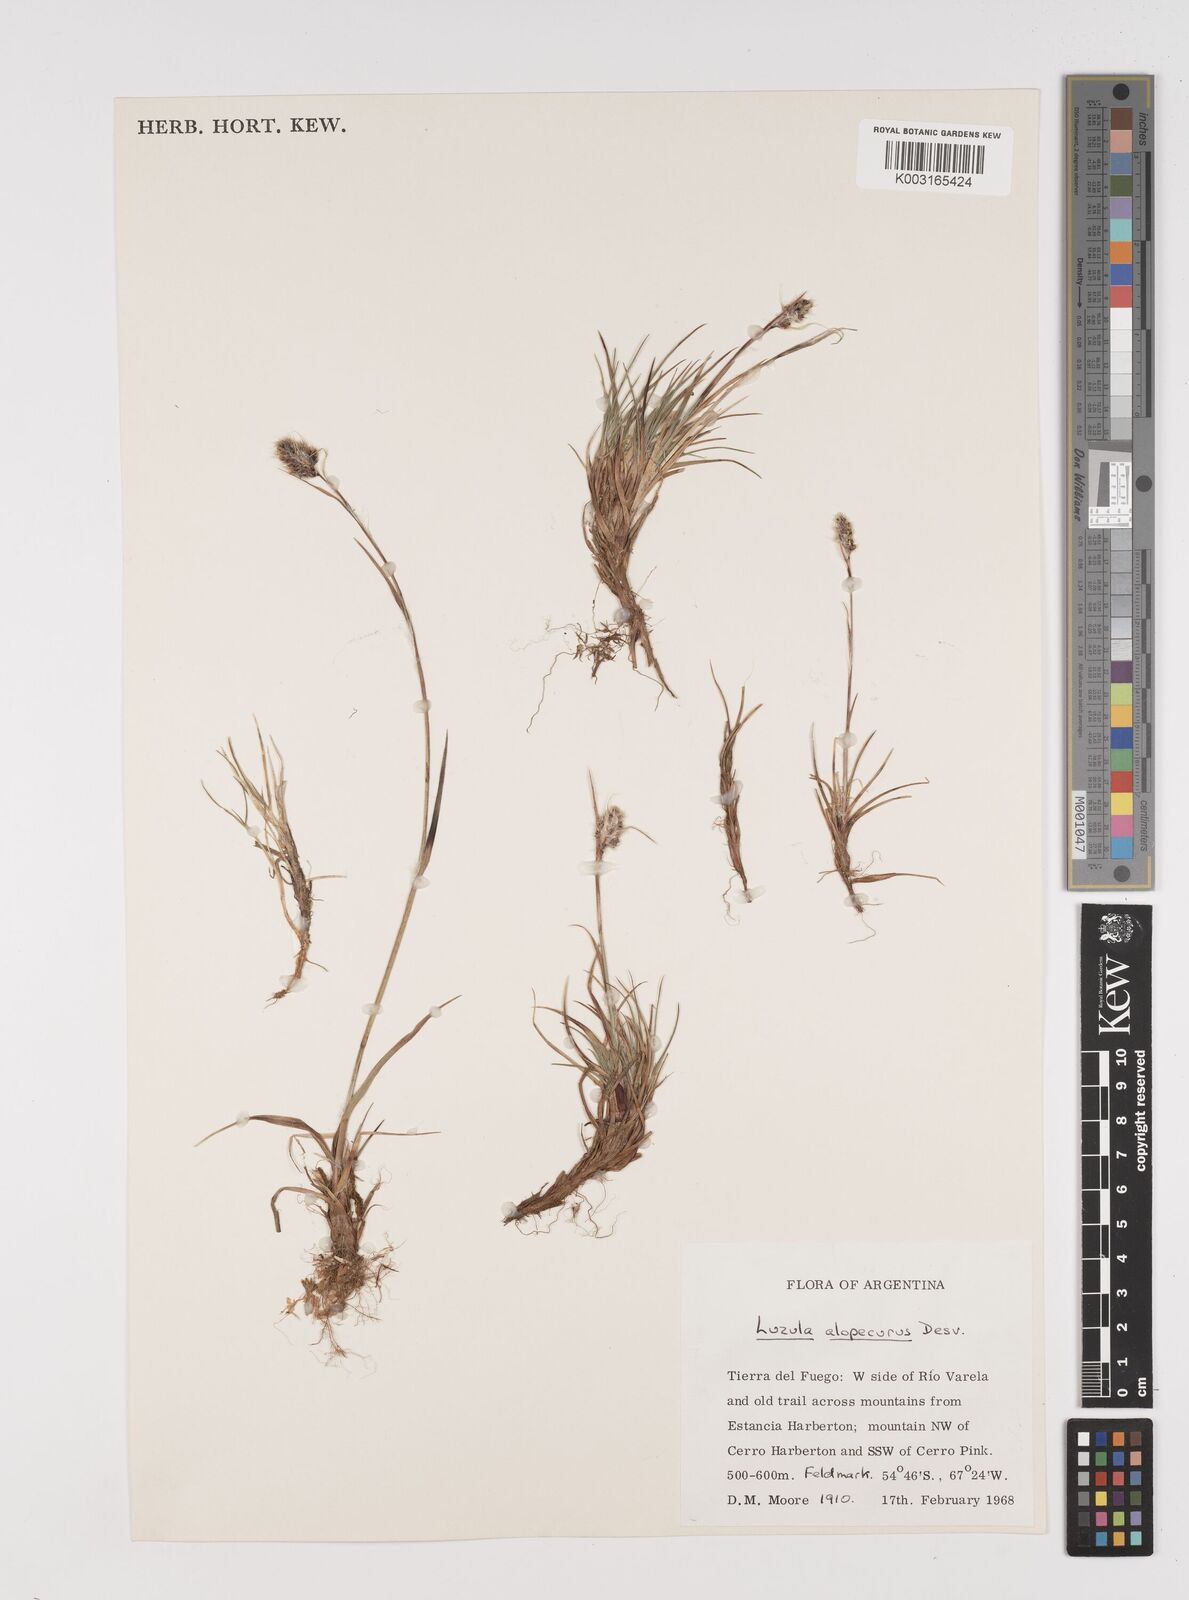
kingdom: Plantae
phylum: Tracheophyta
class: Liliopsida
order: Poales
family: Juncaceae
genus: Luzula
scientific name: Luzula alopecurus
